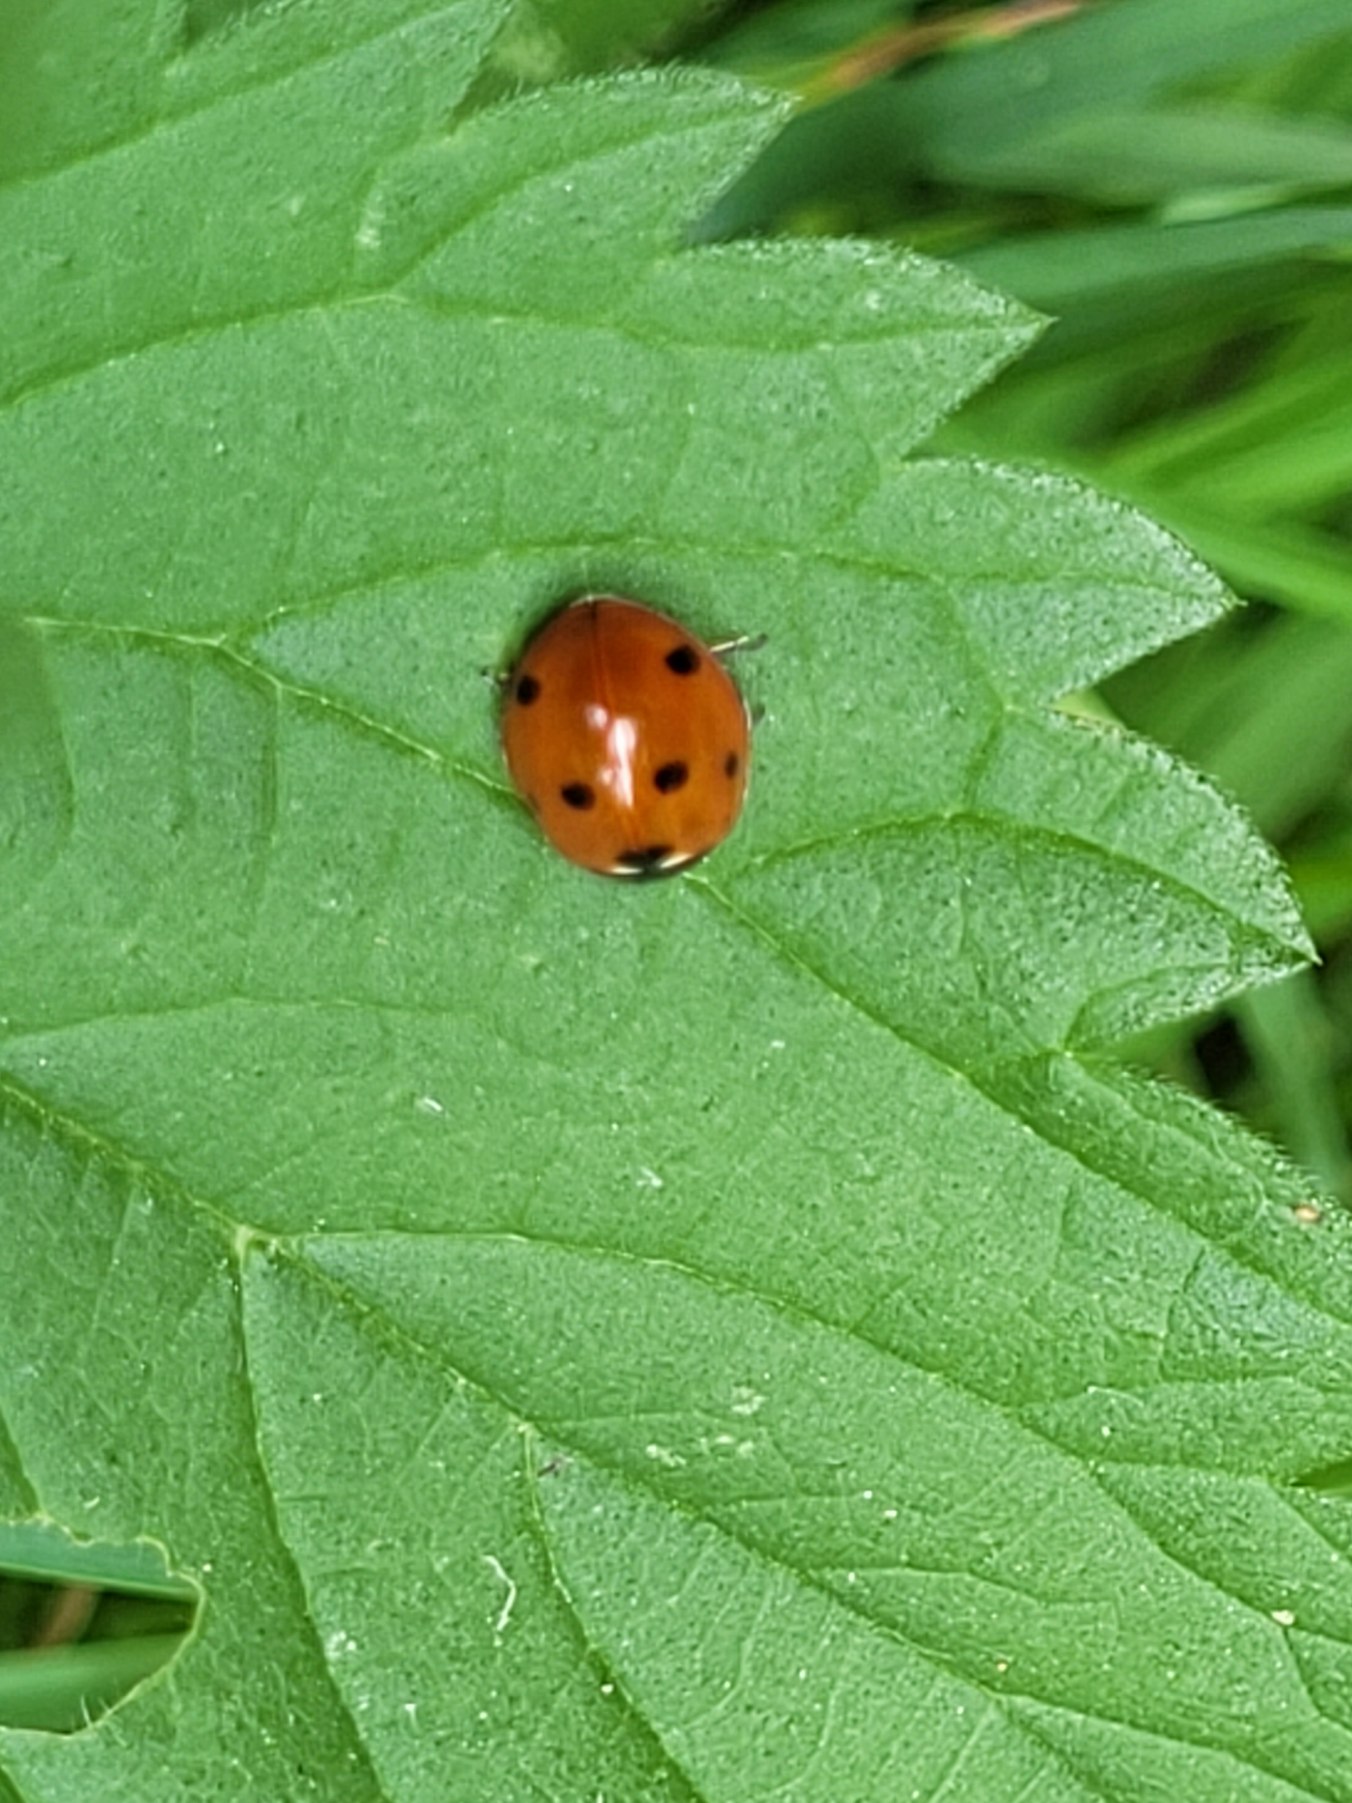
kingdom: Animalia
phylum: Arthropoda
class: Insecta
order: Coleoptera
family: Coccinellidae
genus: Coccinella
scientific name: Coccinella septempunctata
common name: Syvplettet mariehøne
